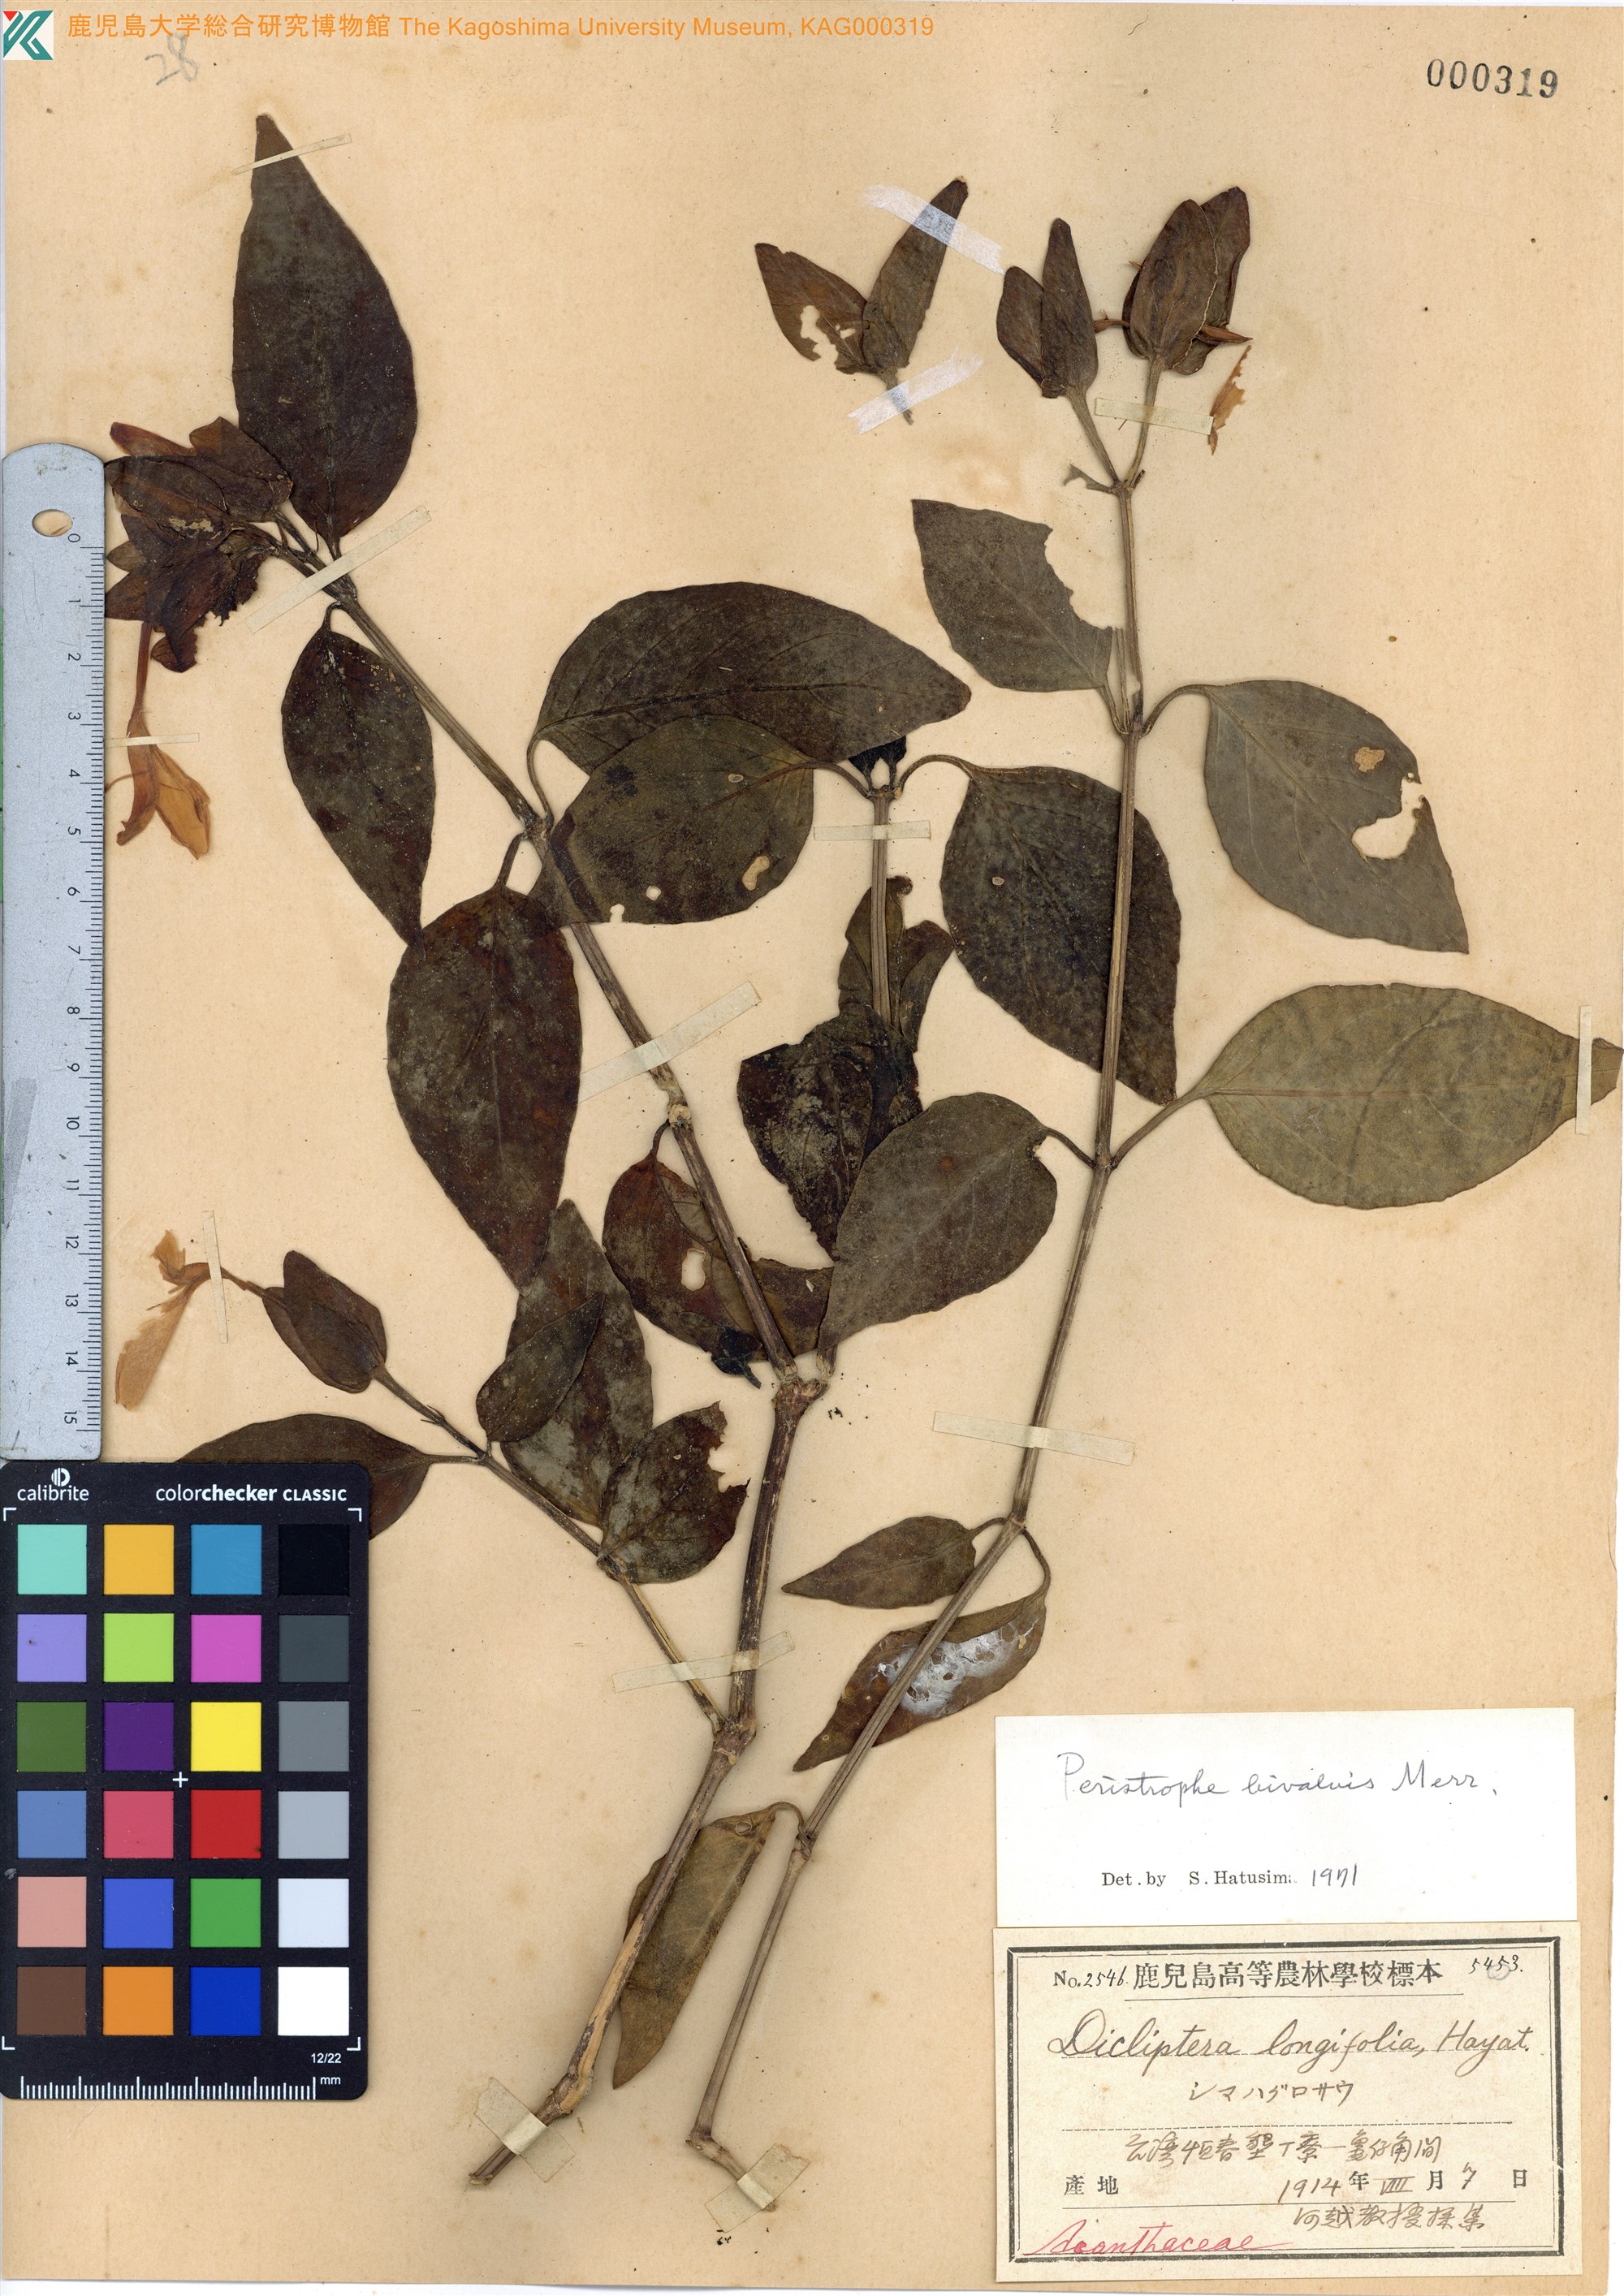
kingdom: Plantae
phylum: Tracheophyta
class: Magnoliopsida
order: Lamiales
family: Acanthaceae
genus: Dicliptera
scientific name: Dicliptera tinctoria
